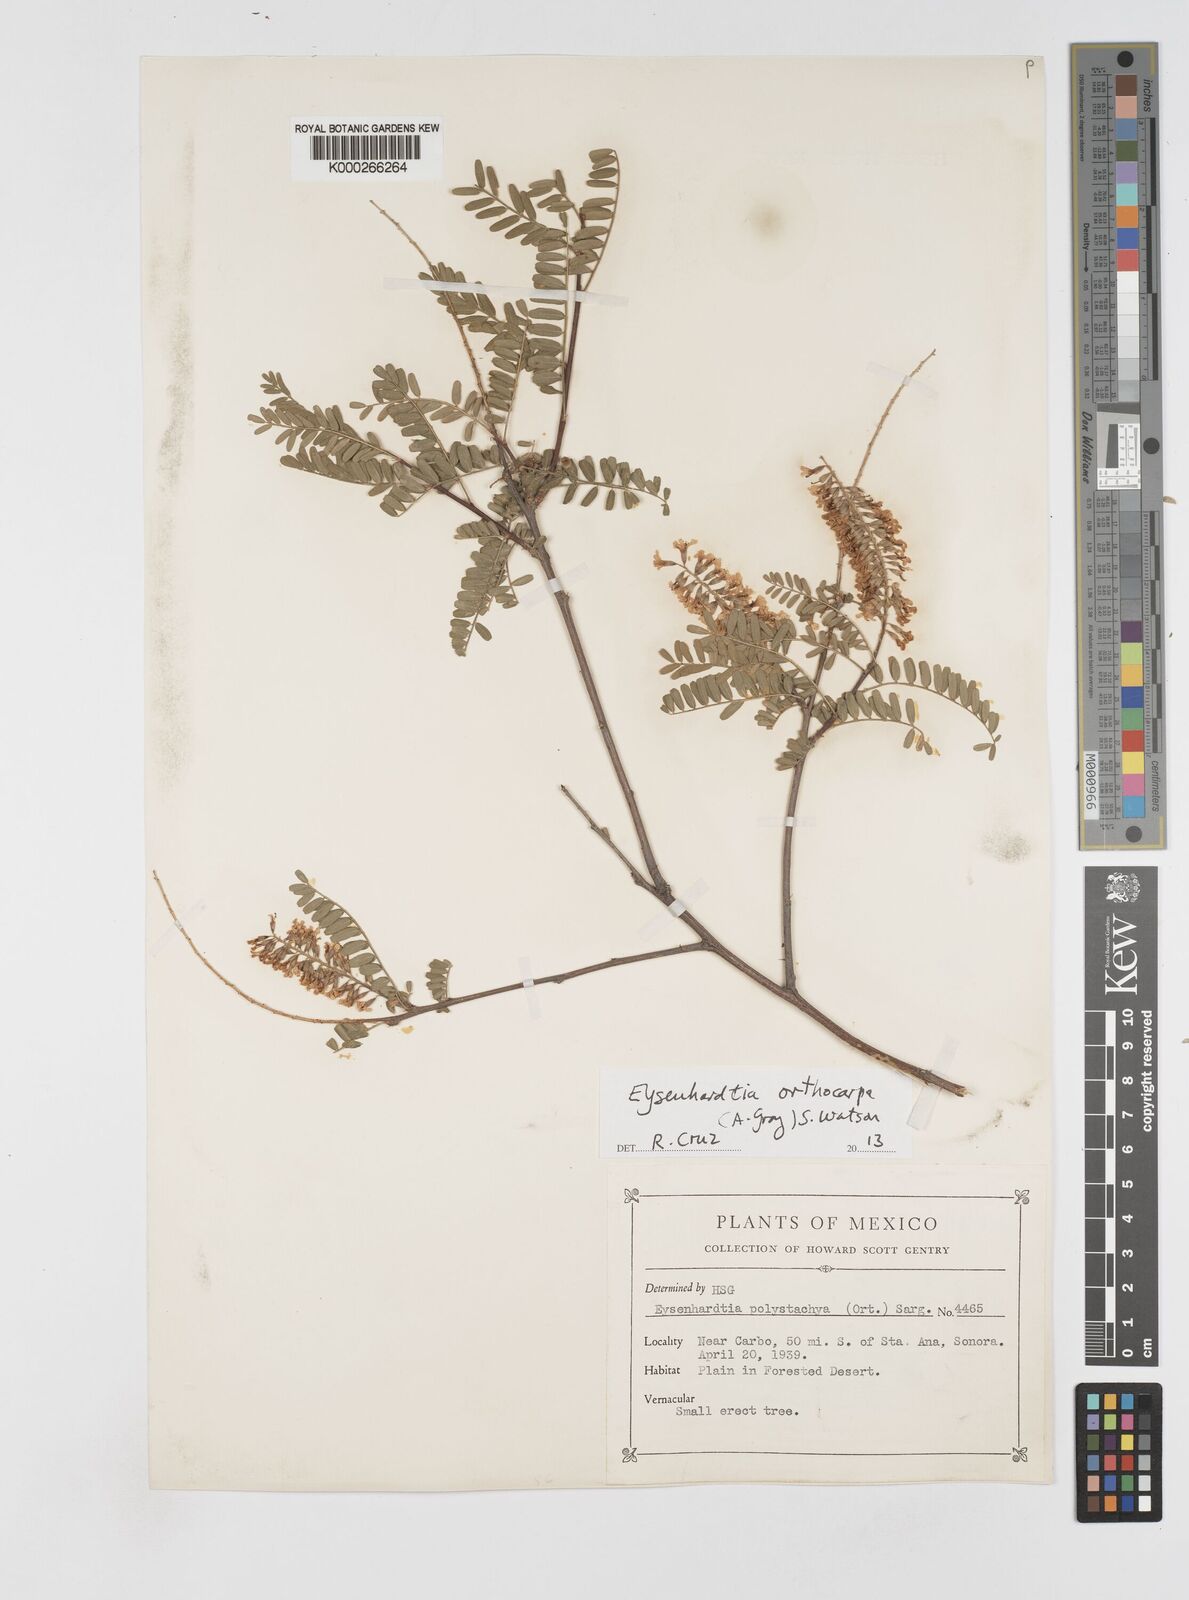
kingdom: Plantae
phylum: Tracheophyta
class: Magnoliopsida
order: Fabales
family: Fabaceae
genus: Eysenhardtia
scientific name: Eysenhardtia orthocarpa
